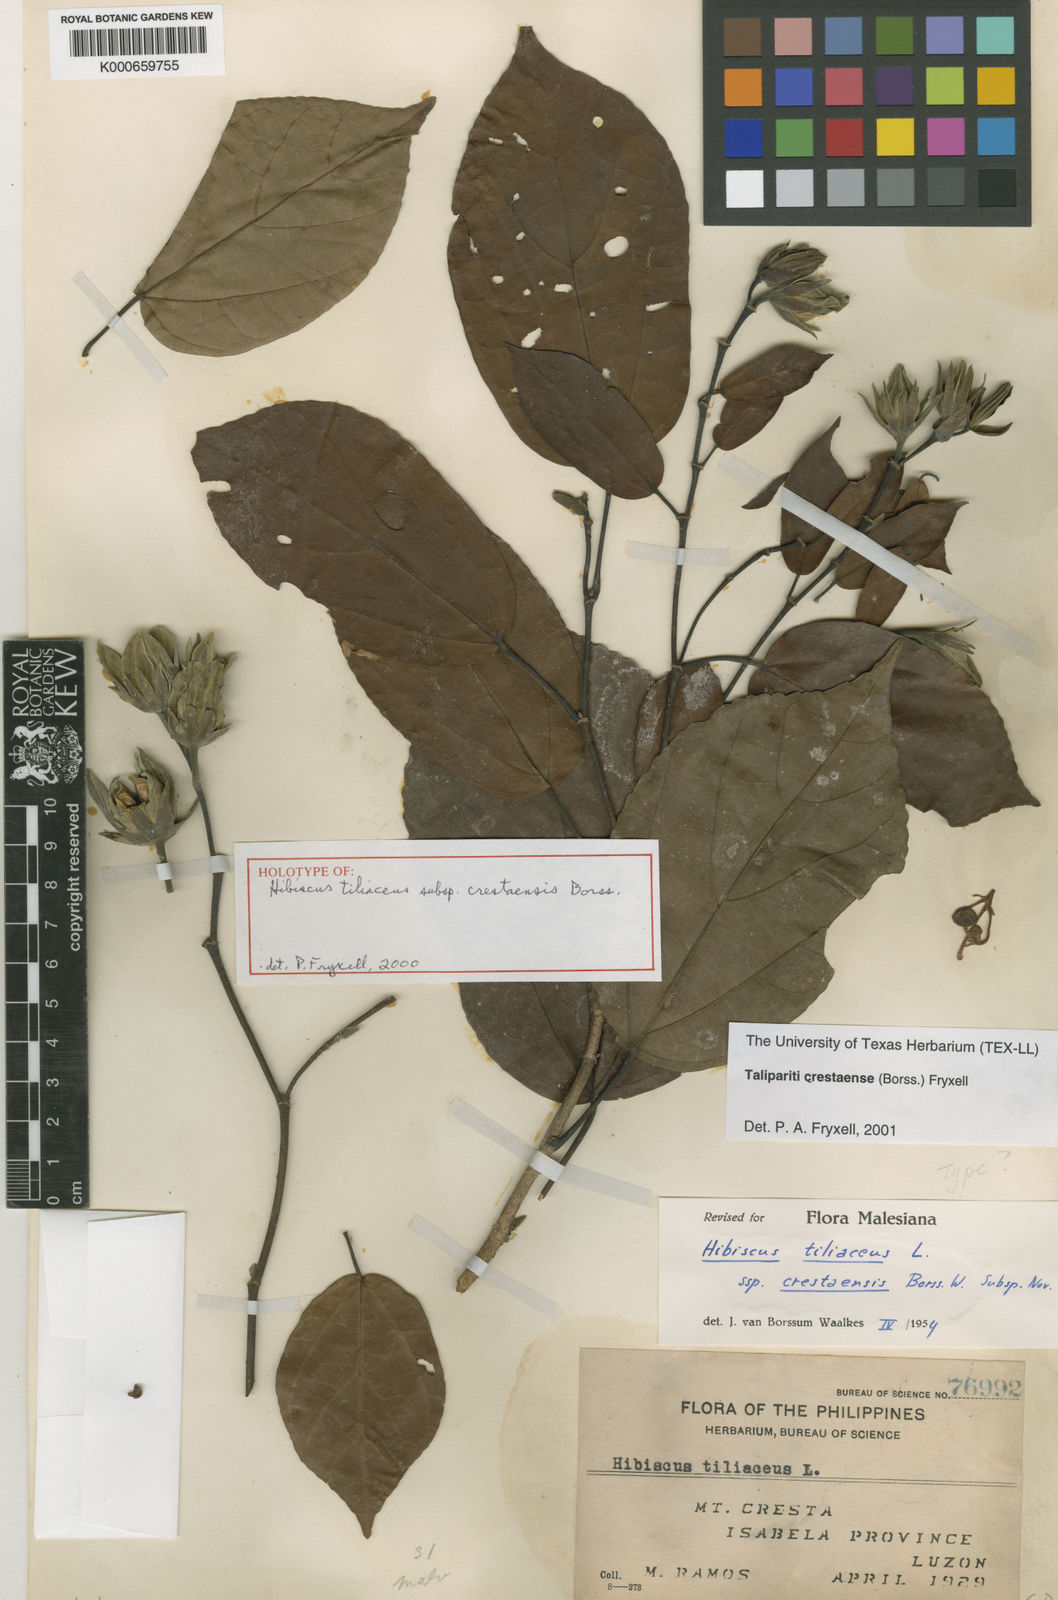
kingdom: Plantae
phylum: Tracheophyta
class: Magnoliopsida
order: Malvales
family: Malvaceae
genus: Talipariti
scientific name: Talipariti tiliaceum
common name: Sea hibiscus
